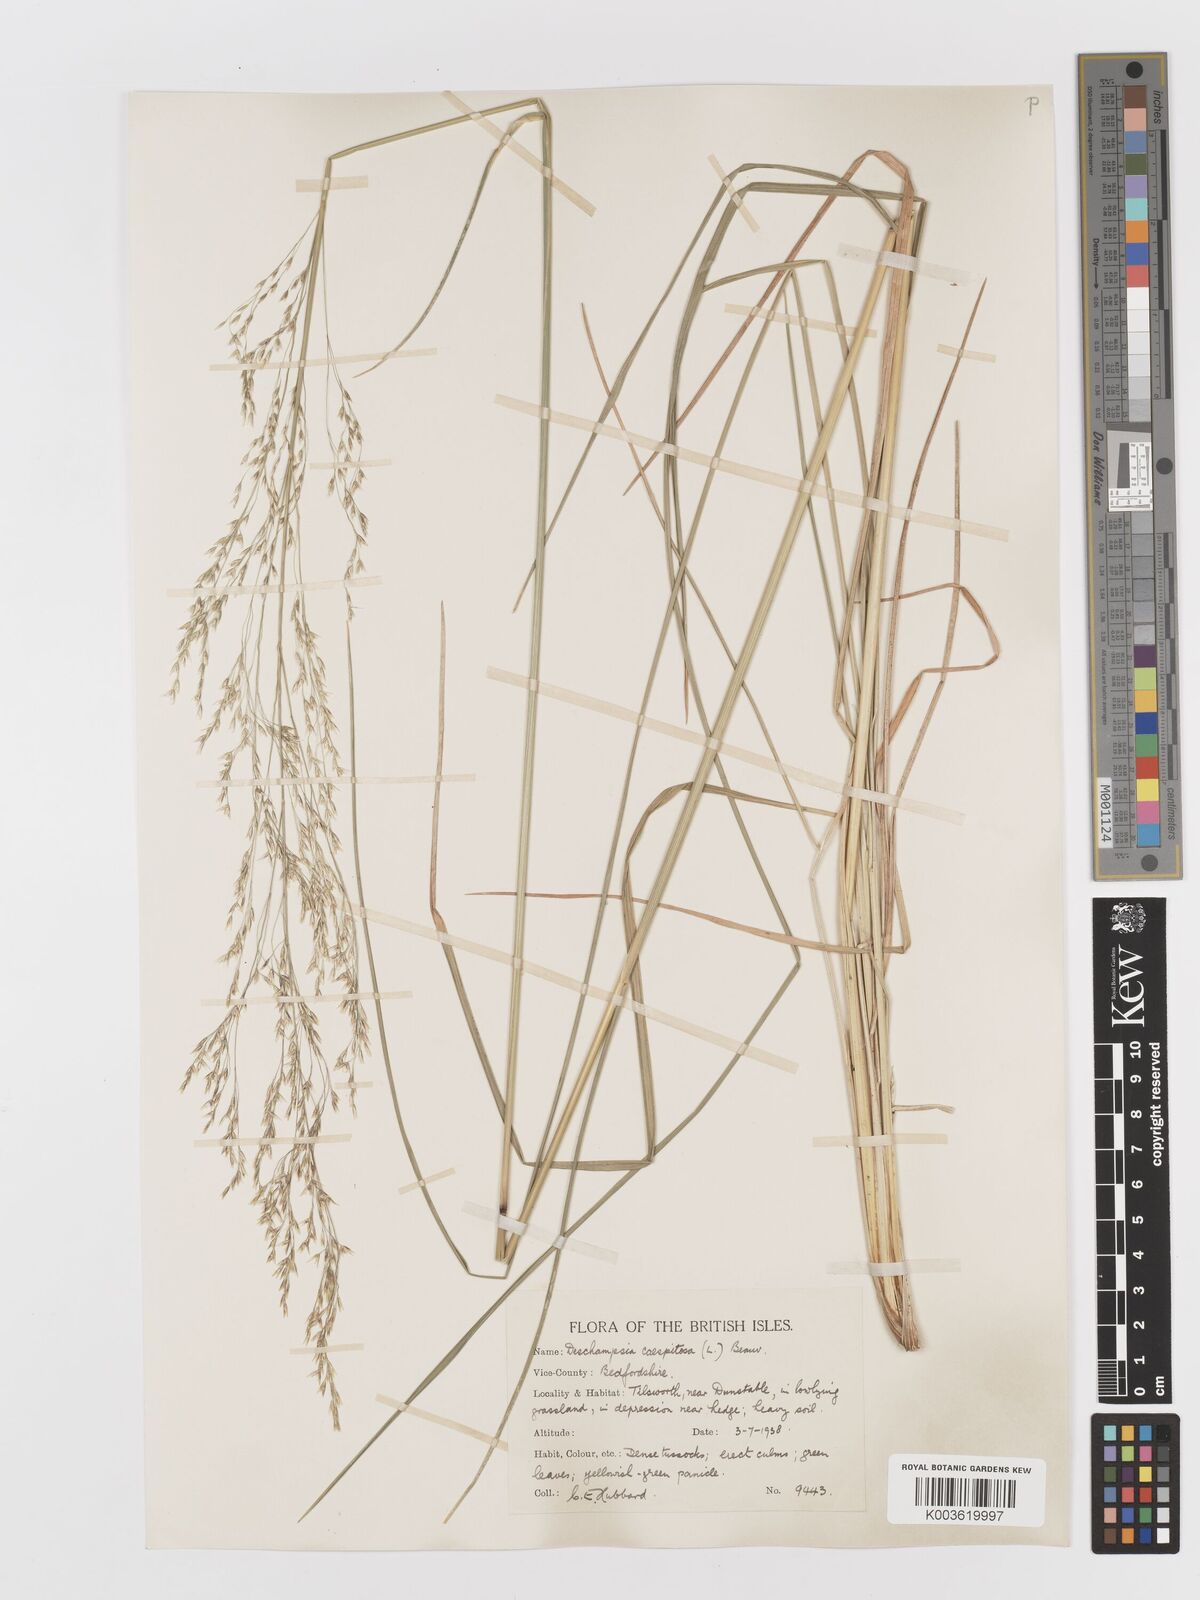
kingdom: Plantae
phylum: Tracheophyta
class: Liliopsida
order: Poales
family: Poaceae
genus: Deschampsia
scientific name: Deschampsia cespitosa
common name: Tufted hair-grass
